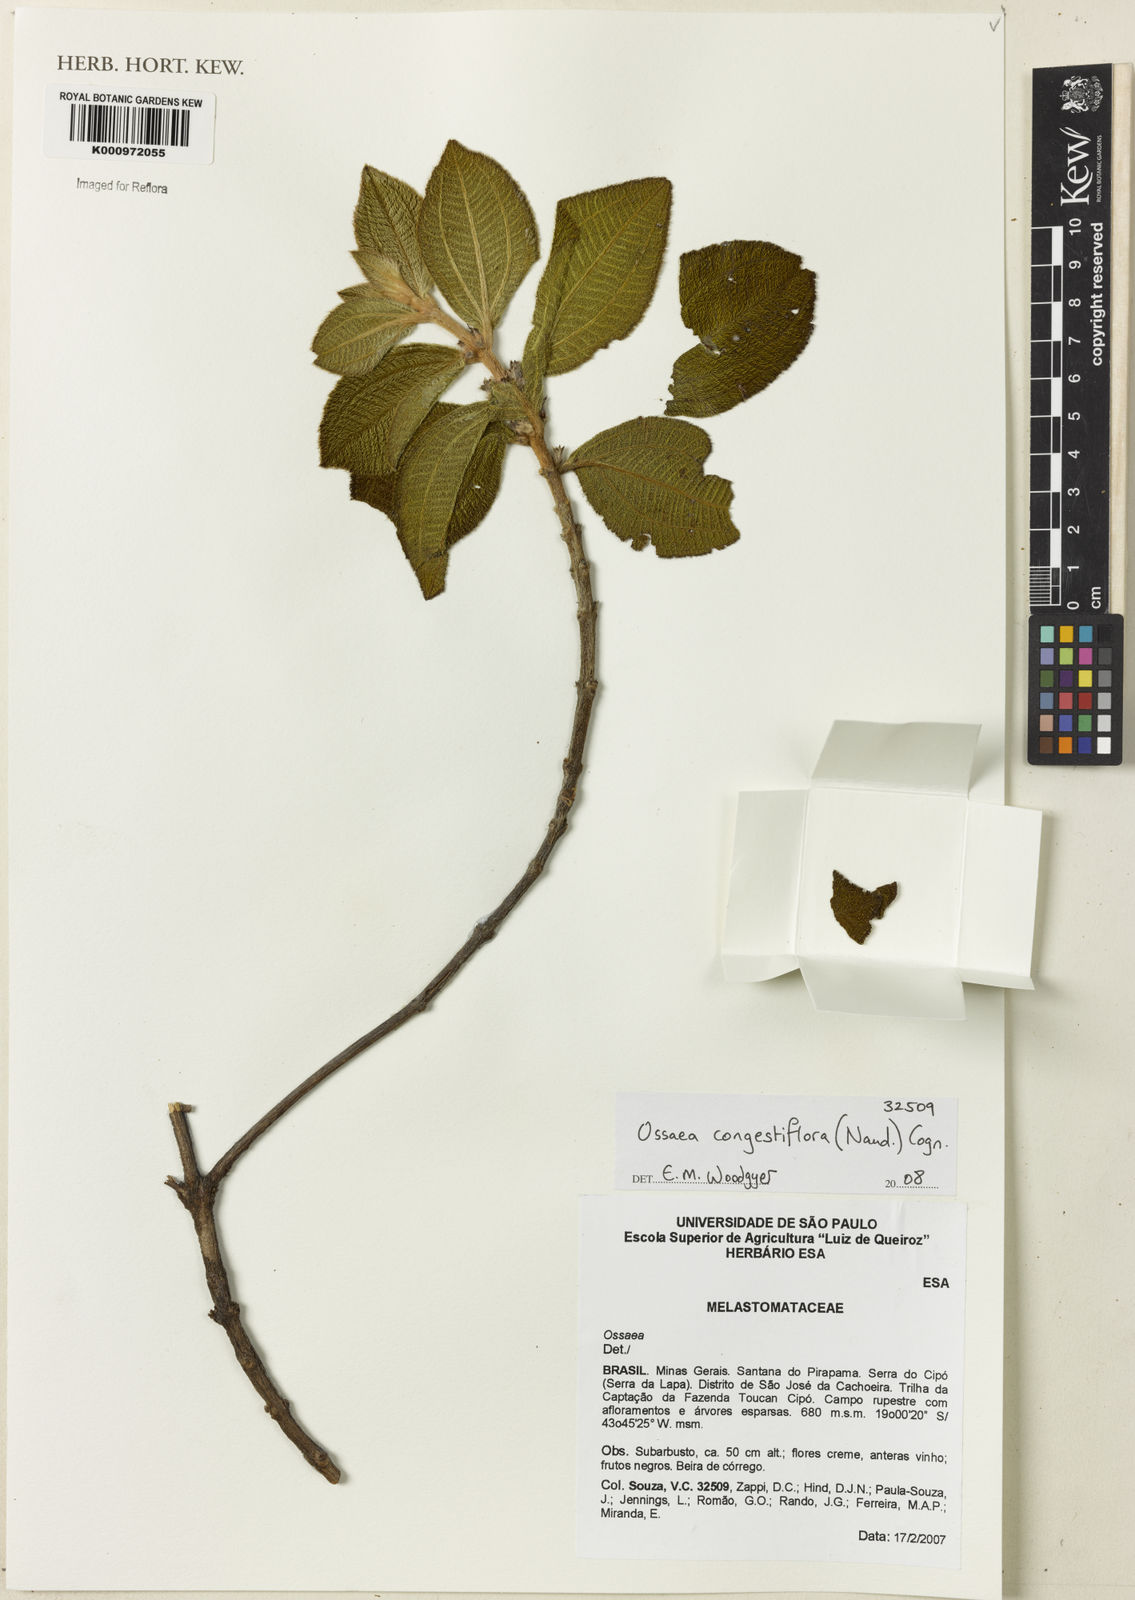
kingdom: Plantae
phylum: Tracheophyta
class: Magnoliopsida
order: Myrtales
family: Melastomataceae
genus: Miconia
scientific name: Miconia leacongestiflora
